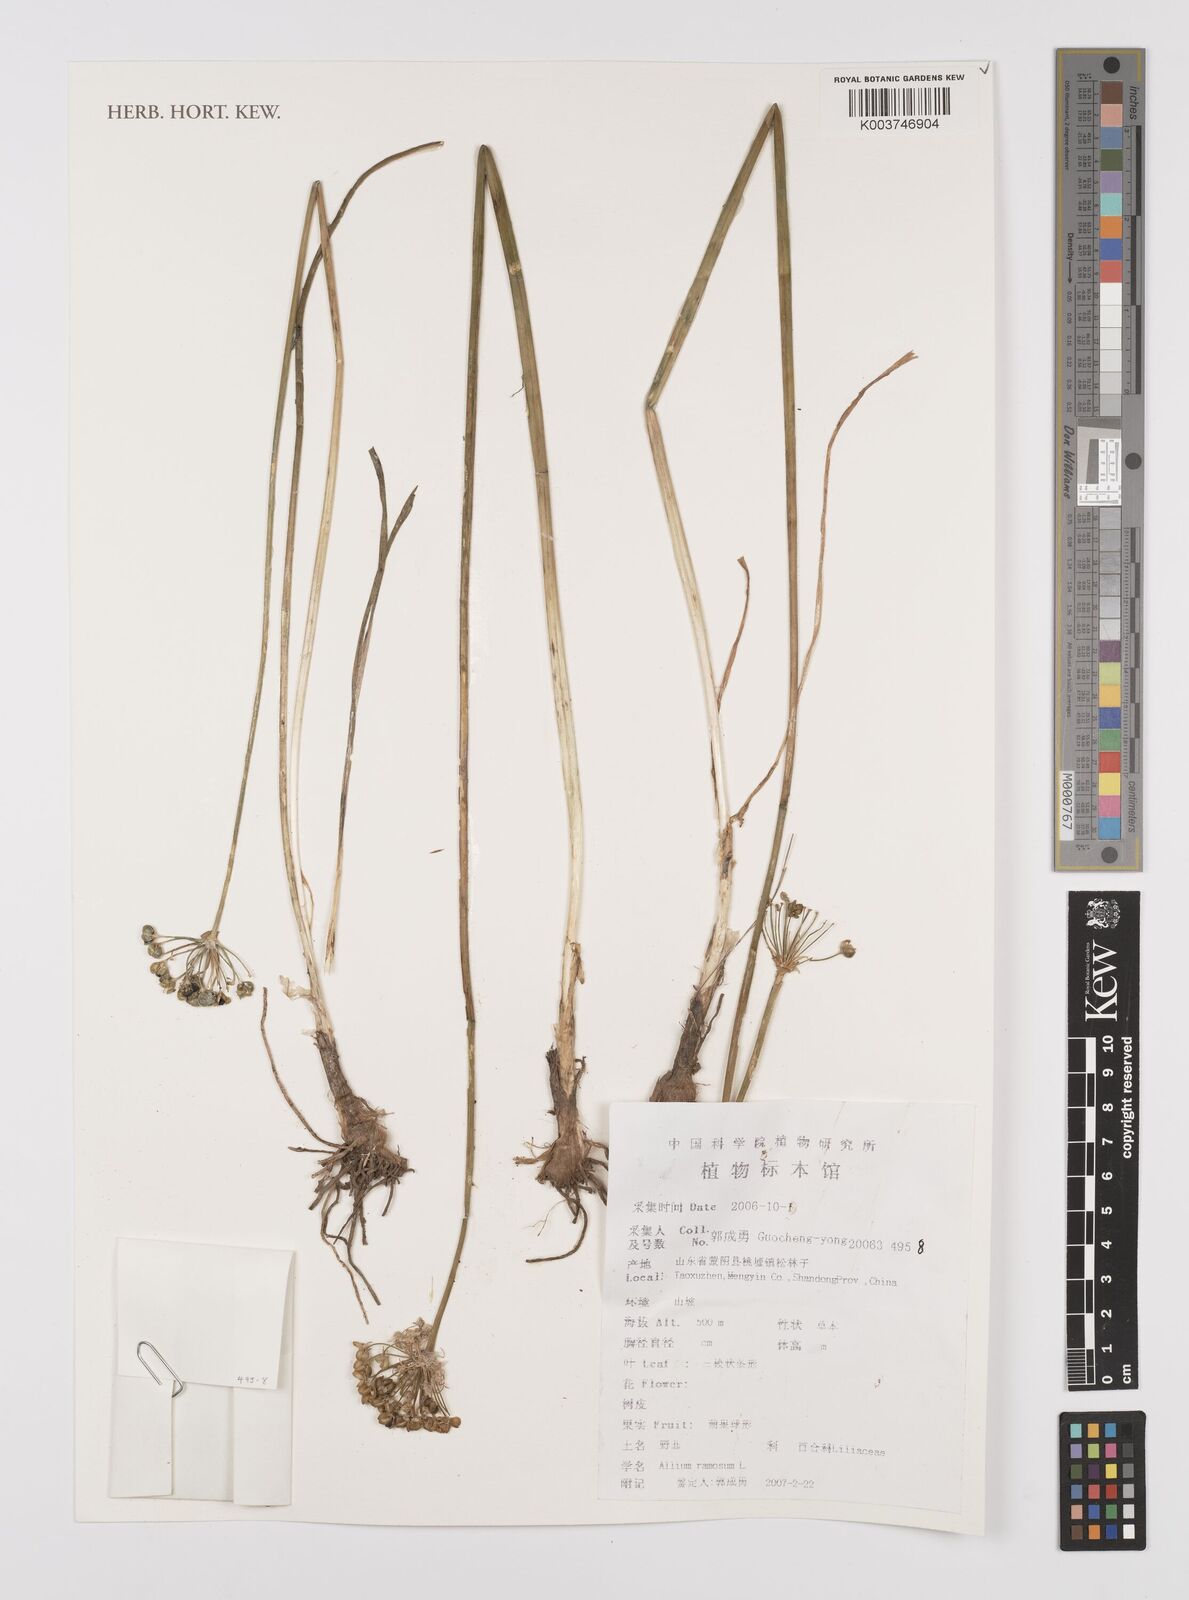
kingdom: Plantae
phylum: Tracheophyta
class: Liliopsida
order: Asparagales
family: Amaryllidaceae
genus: Allium
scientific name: Allium ramosum
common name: Fragrant garlic
